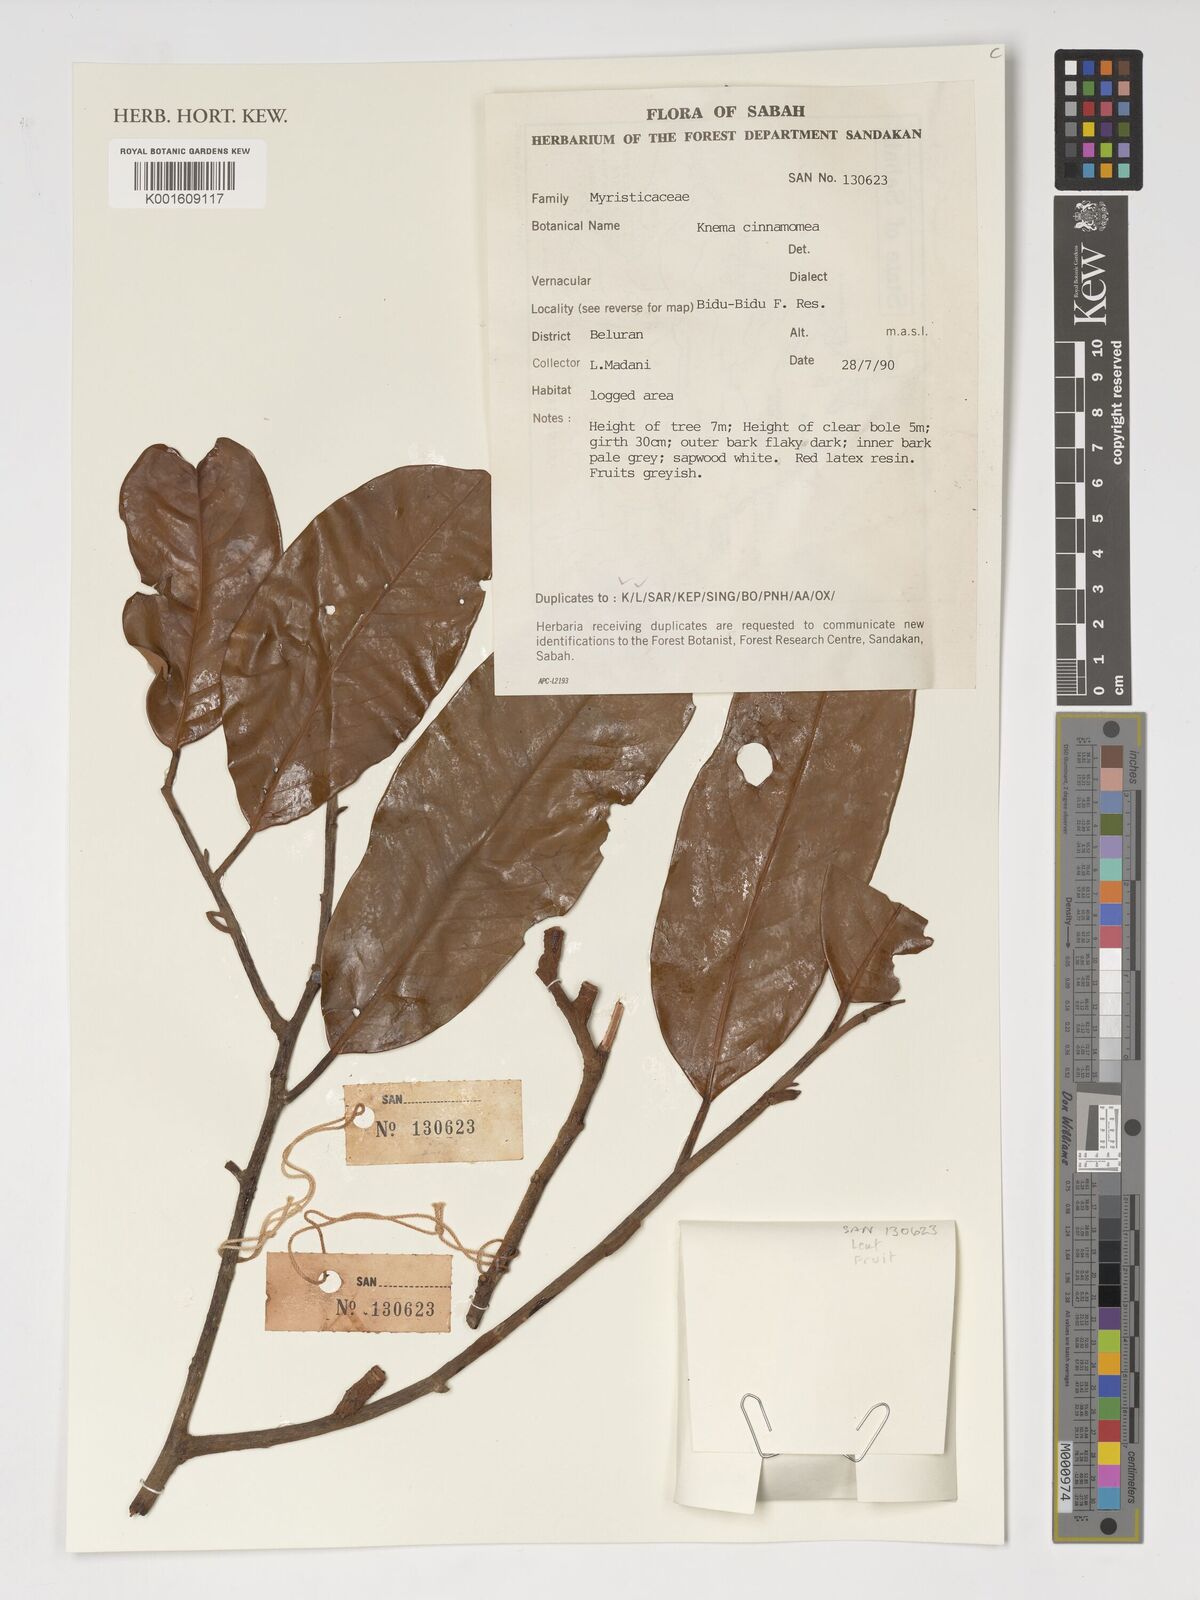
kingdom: Plantae
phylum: Tracheophyta
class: Magnoliopsida
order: Magnoliales
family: Myristicaceae
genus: Knema
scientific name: Knema
